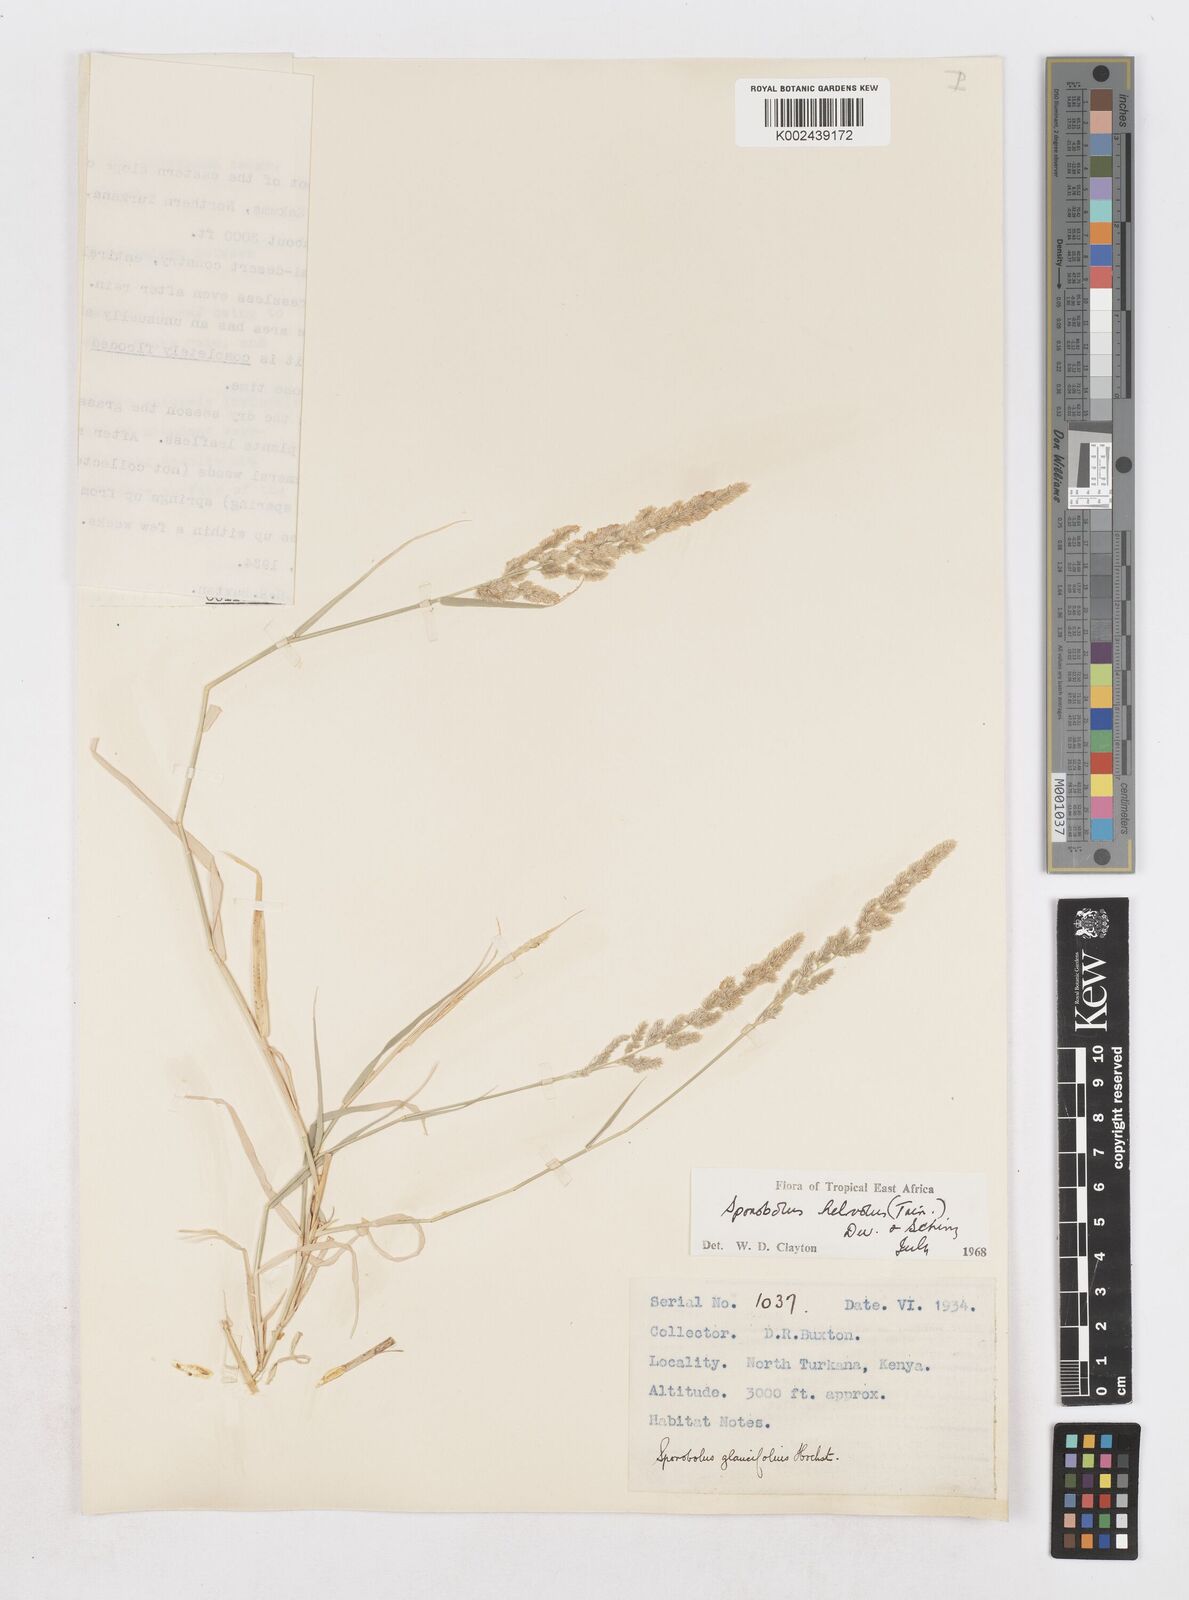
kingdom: Plantae
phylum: Tracheophyta
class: Liliopsida
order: Poales
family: Poaceae
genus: Sporobolus
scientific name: Sporobolus helvolus
